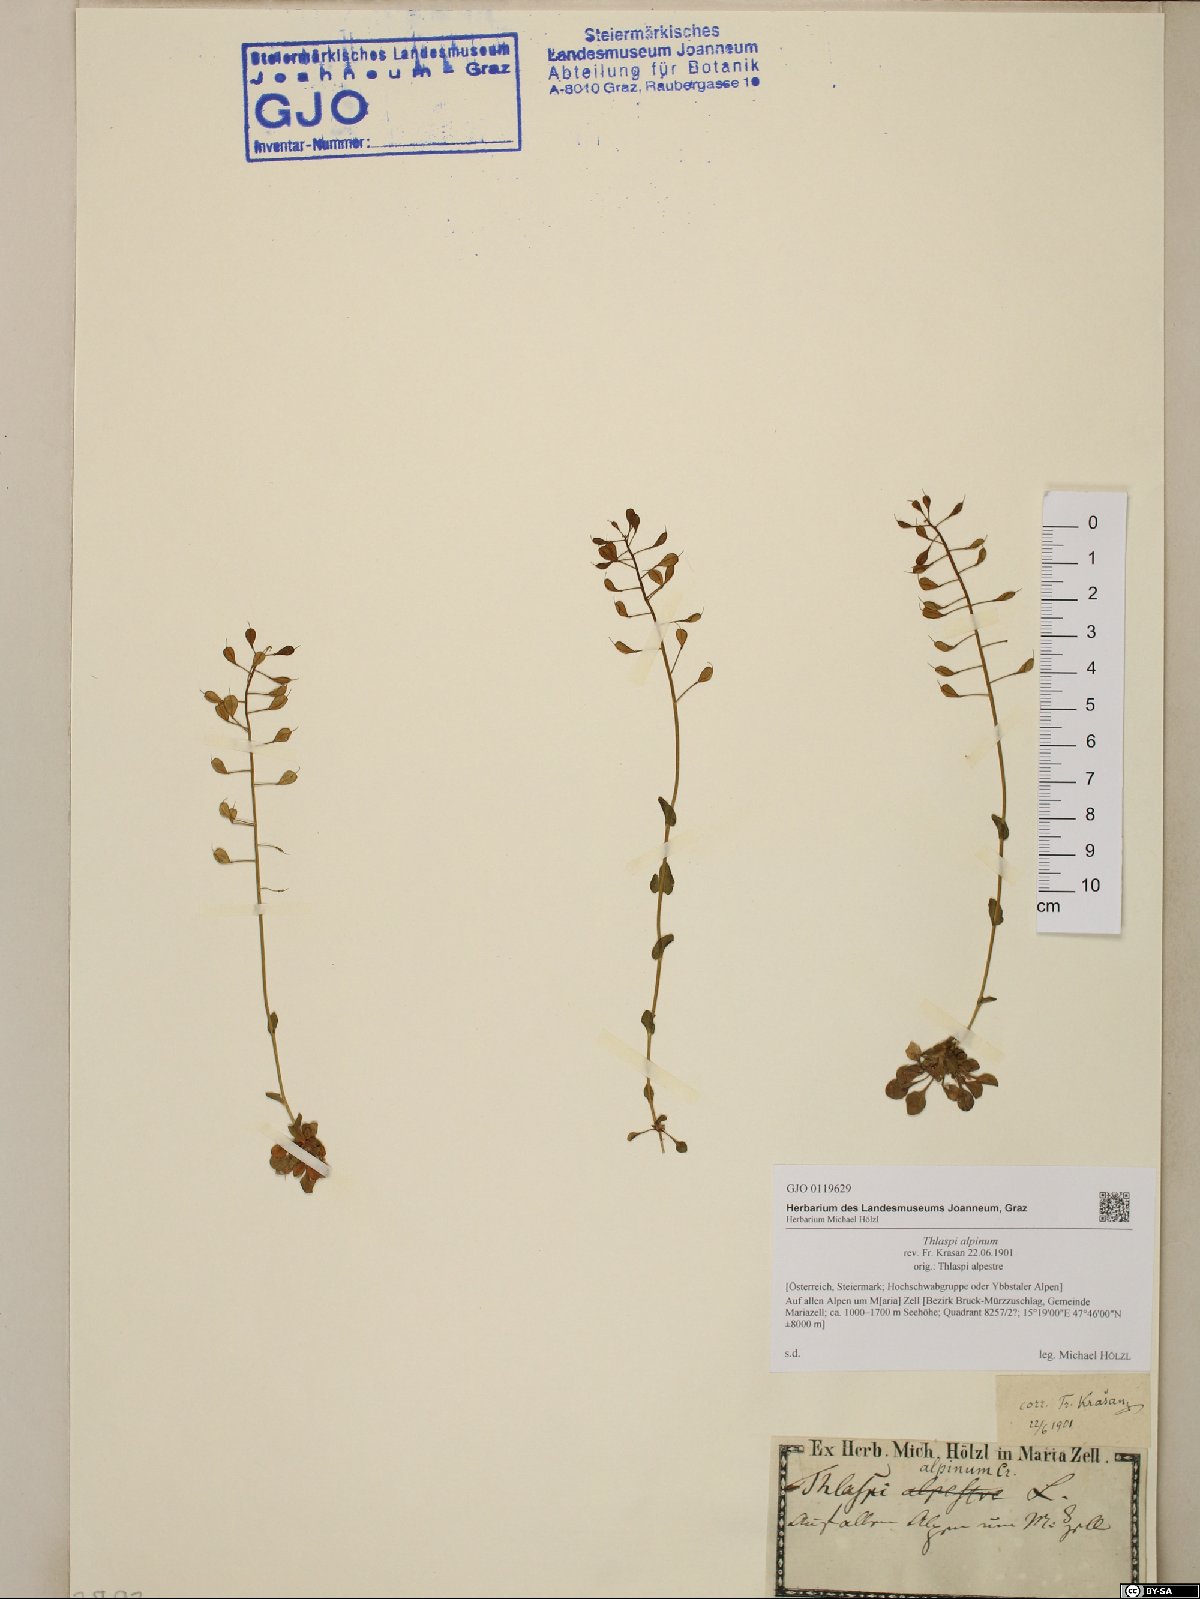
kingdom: Plantae
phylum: Tracheophyta
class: Magnoliopsida
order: Brassicales
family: Brassicaceae
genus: Noccaea
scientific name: Noccaea alpestris
